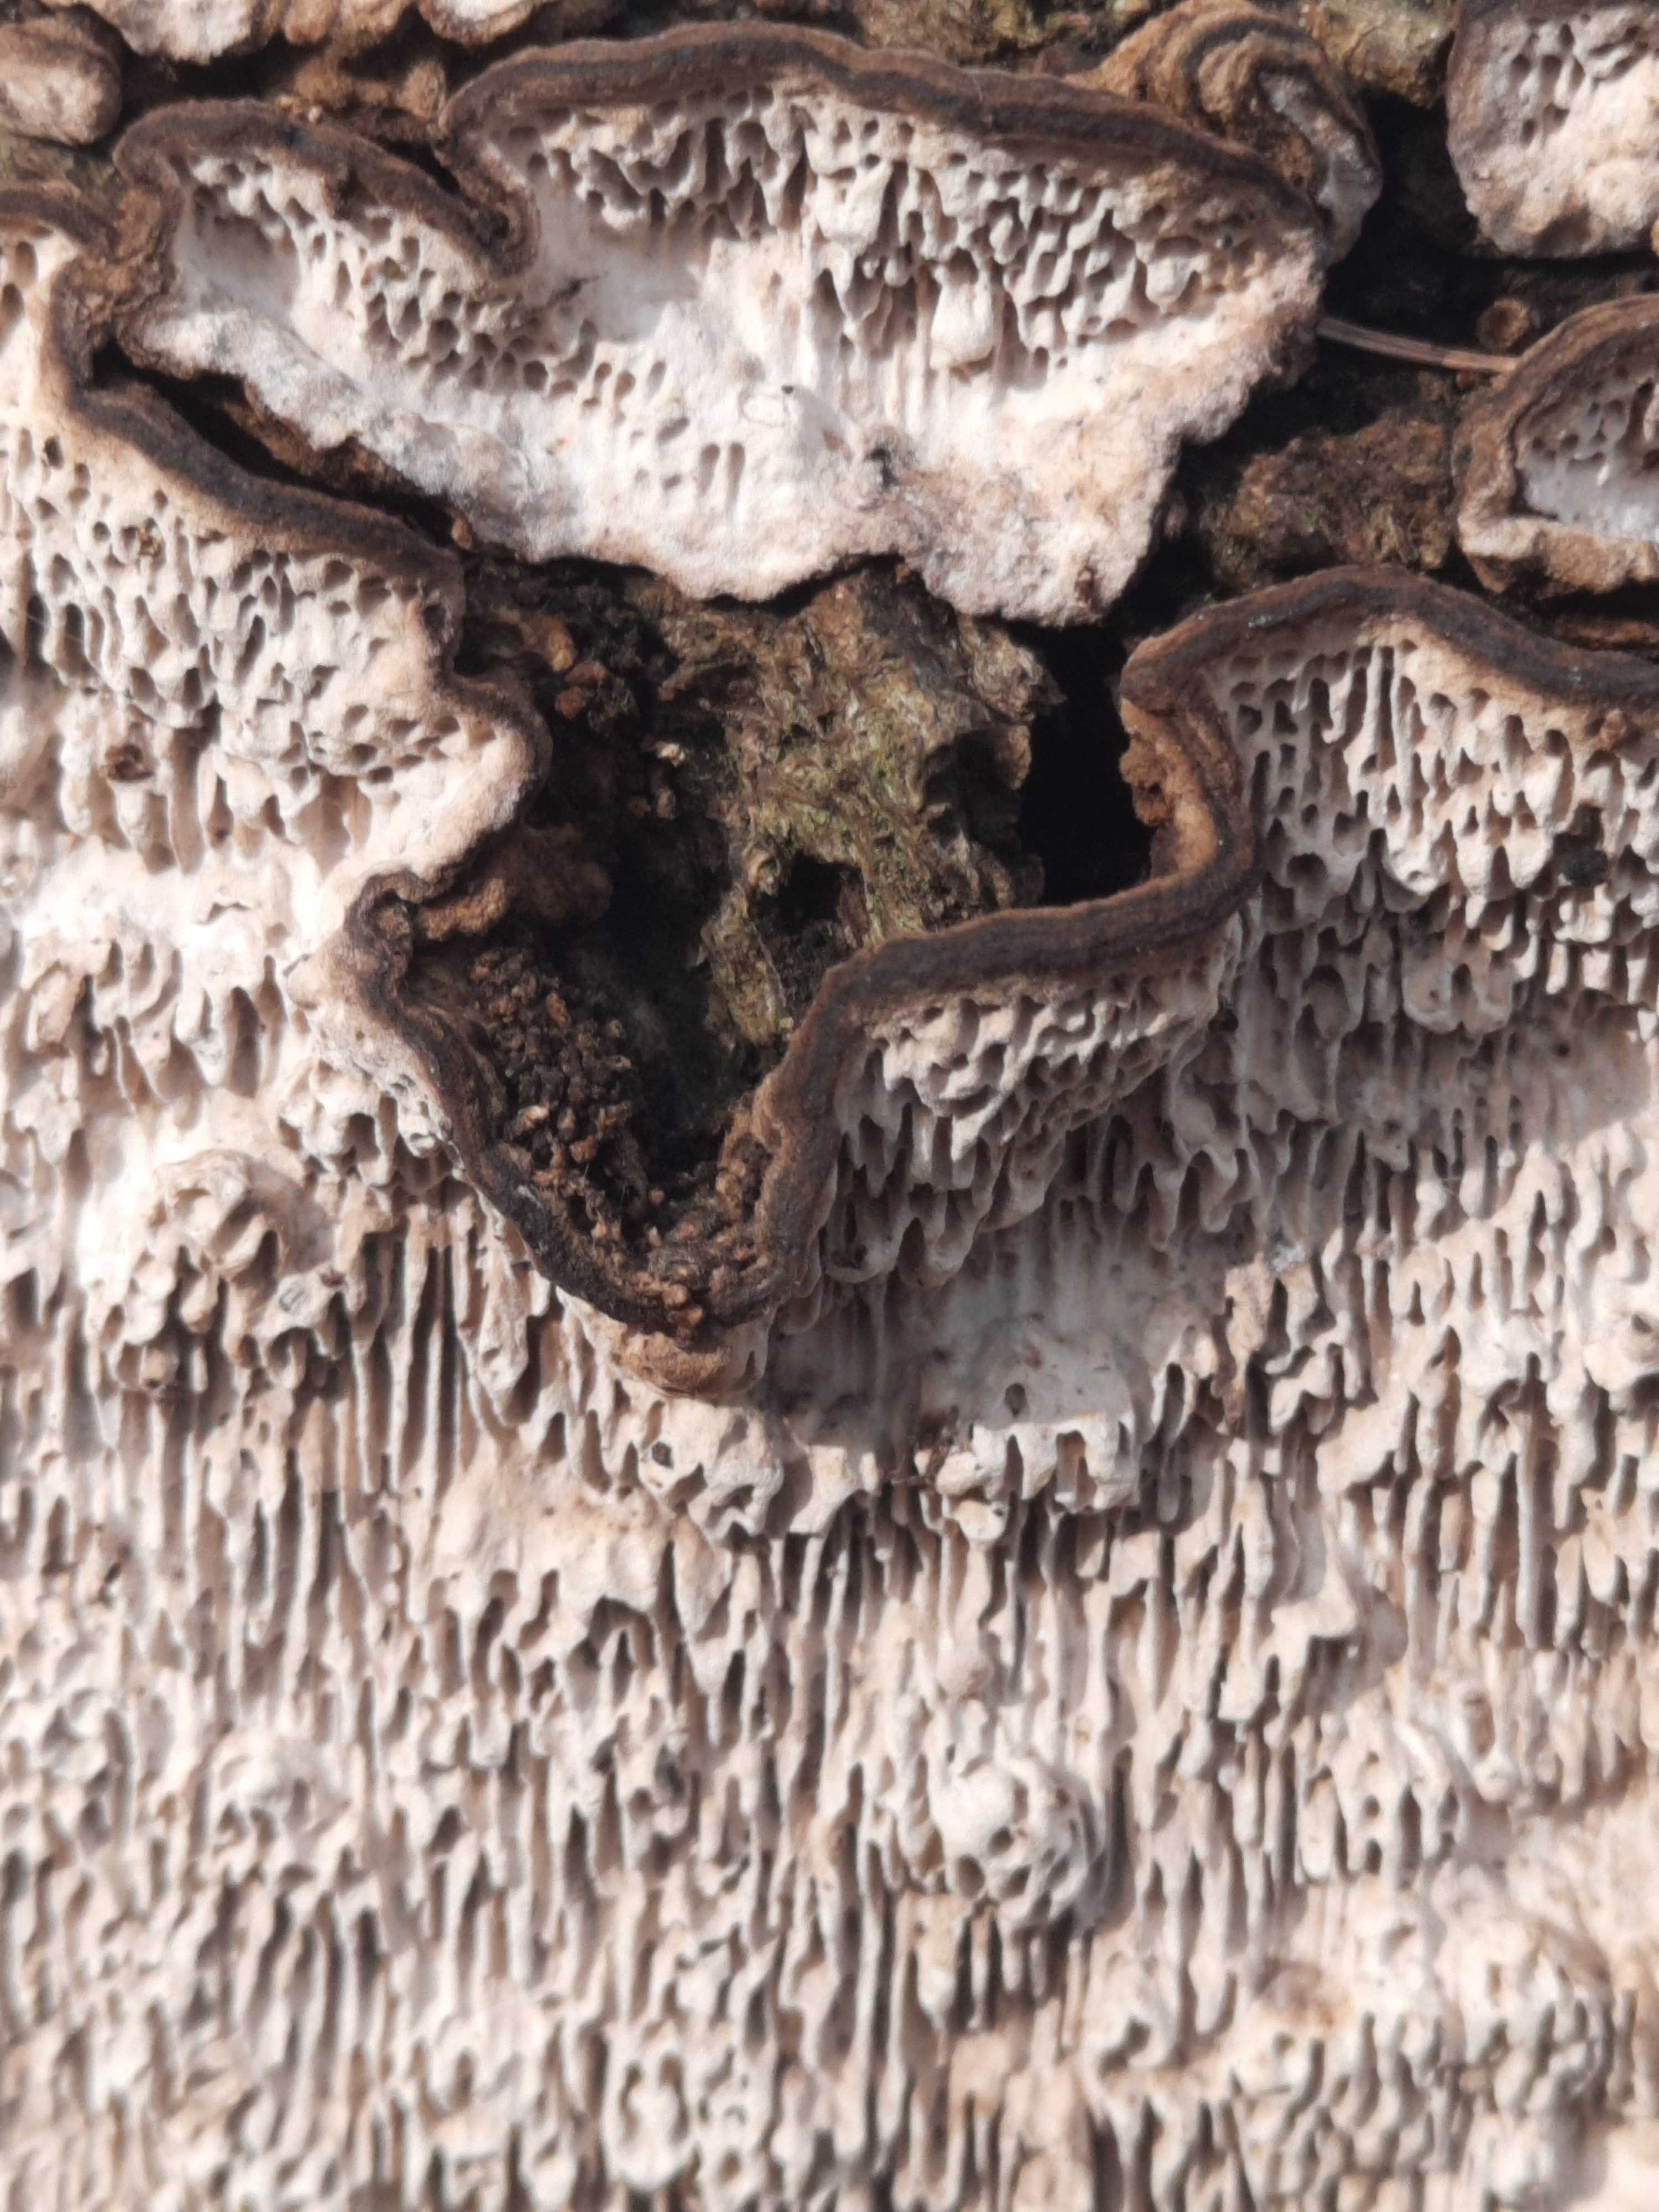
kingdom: Fungi
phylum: Basidiomycota
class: Agaricomycetes
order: Polyporales
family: Polyporaceae
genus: Podofomes
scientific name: Podofomes mollis
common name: blød begporesvamp
